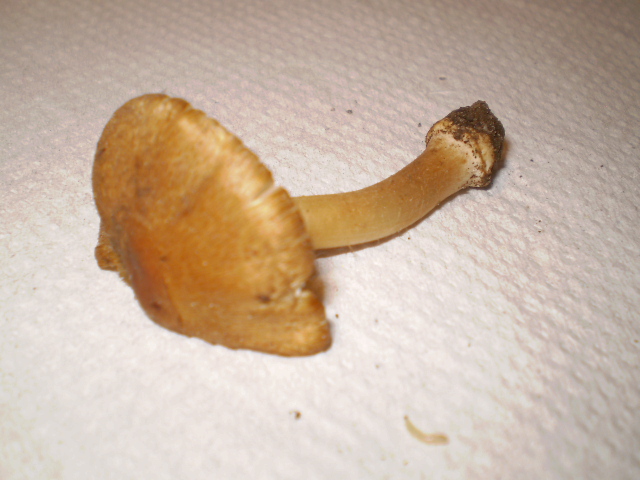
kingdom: Fungi
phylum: Basidiomycota
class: Agaricomycetes
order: Agaricales
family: Inocybaceae
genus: Inocybe
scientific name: Inocybe mixtilis
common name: randknoldet trævlhat
